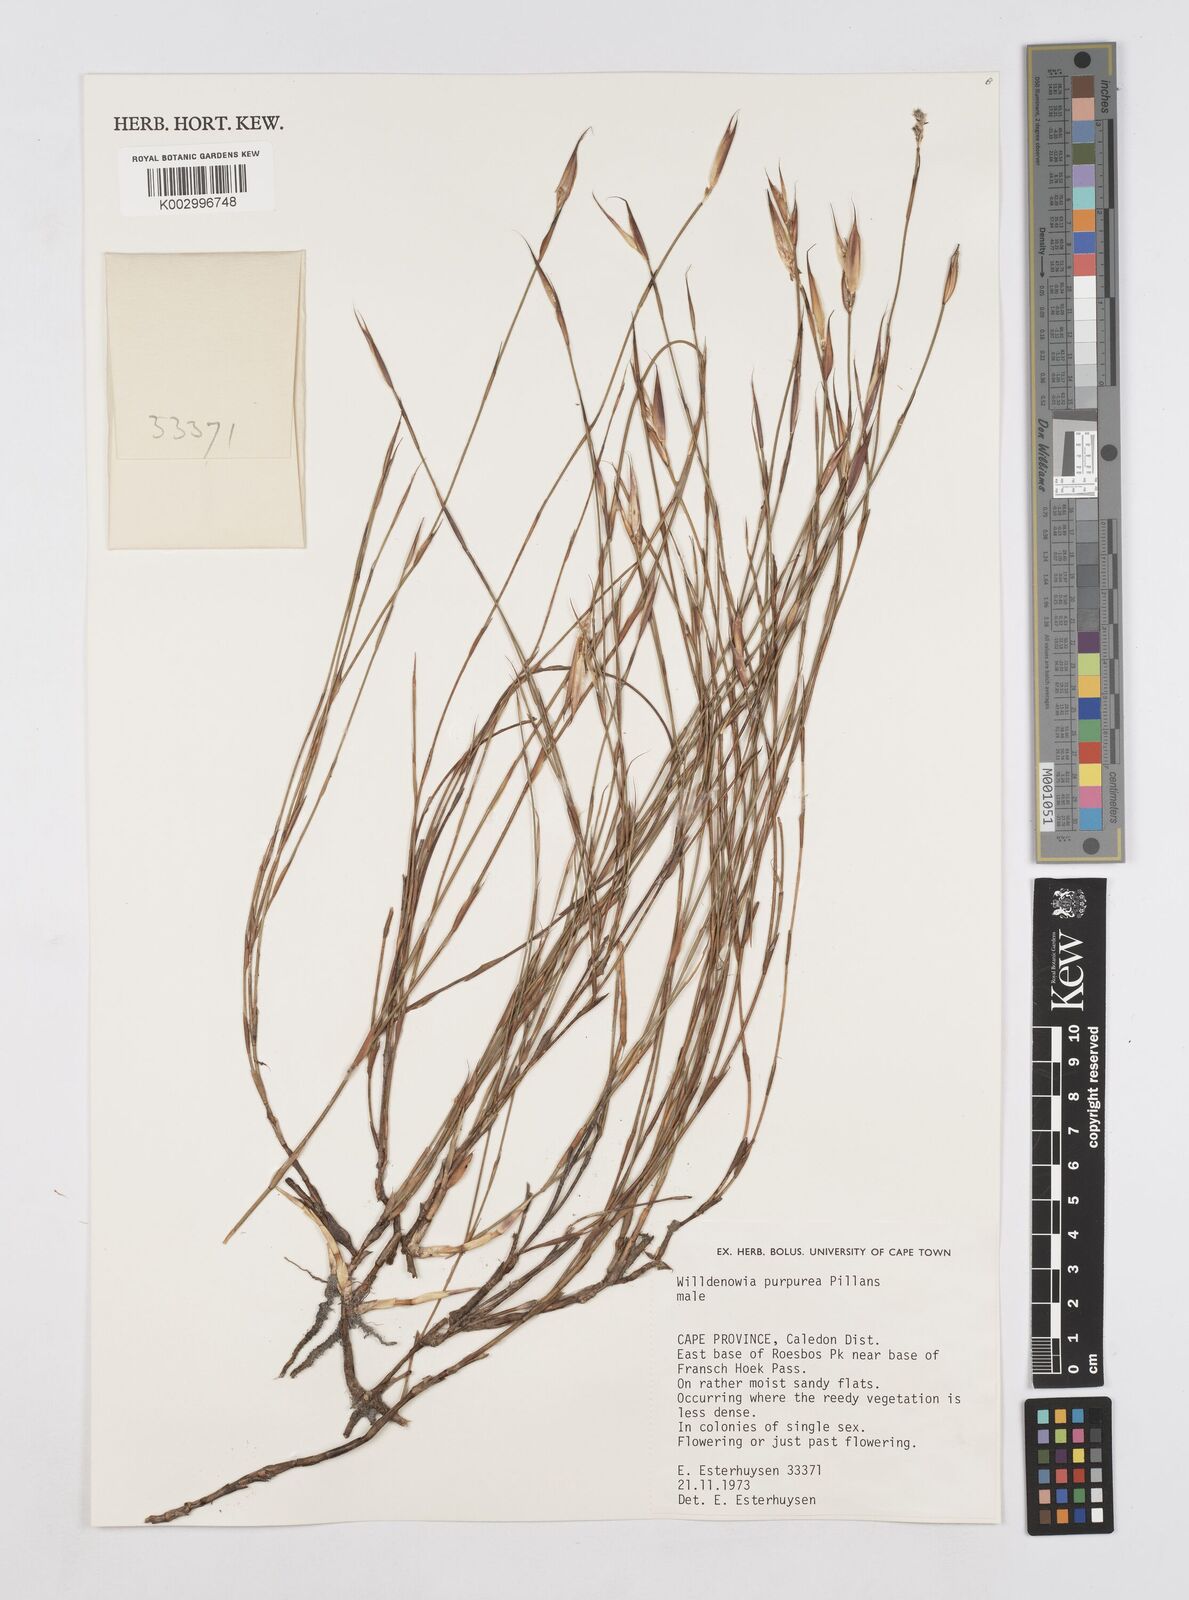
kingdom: Plantae
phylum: Tracheophyta
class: Liliopsida
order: Poales
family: Restionaceae
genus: Willdenowia
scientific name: Willdenowia purpurea
